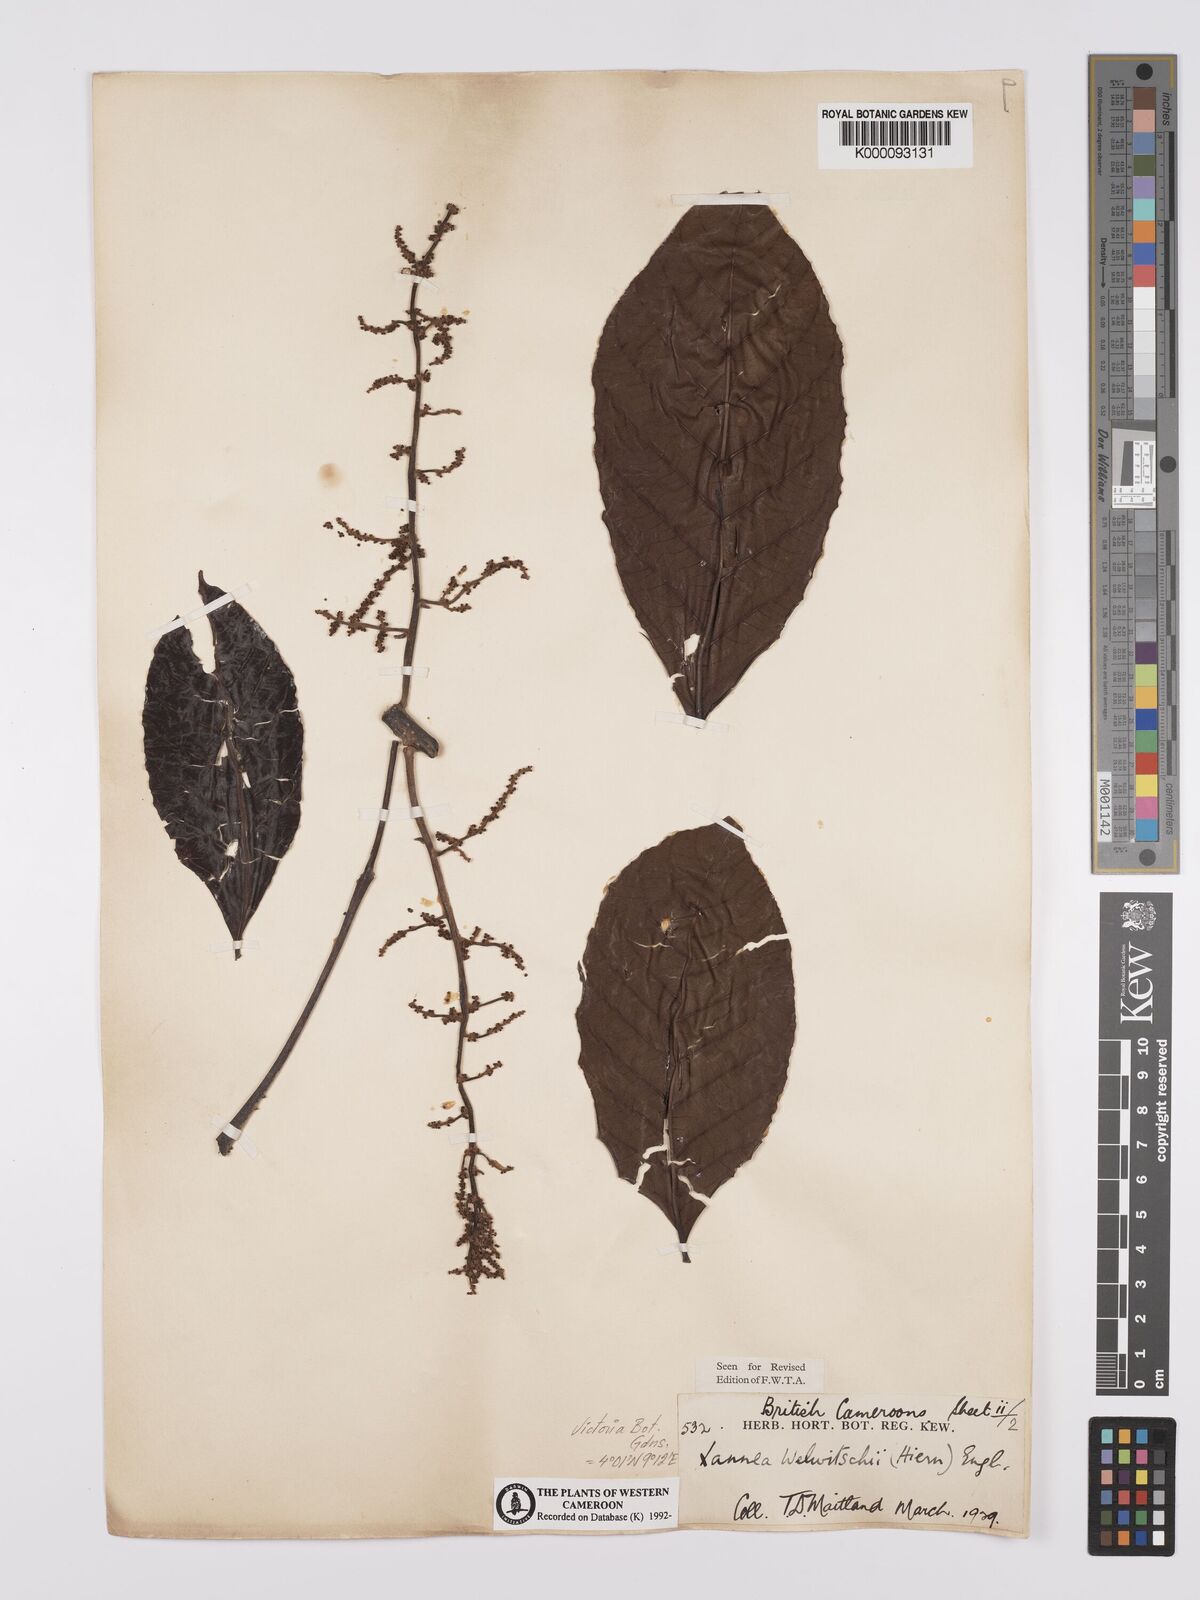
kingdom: Plantae
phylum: Tracheophyta
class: Magnoliopsida
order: Sapindales
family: Anacardiaceae
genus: Lannea
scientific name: Lannea welwitschii
